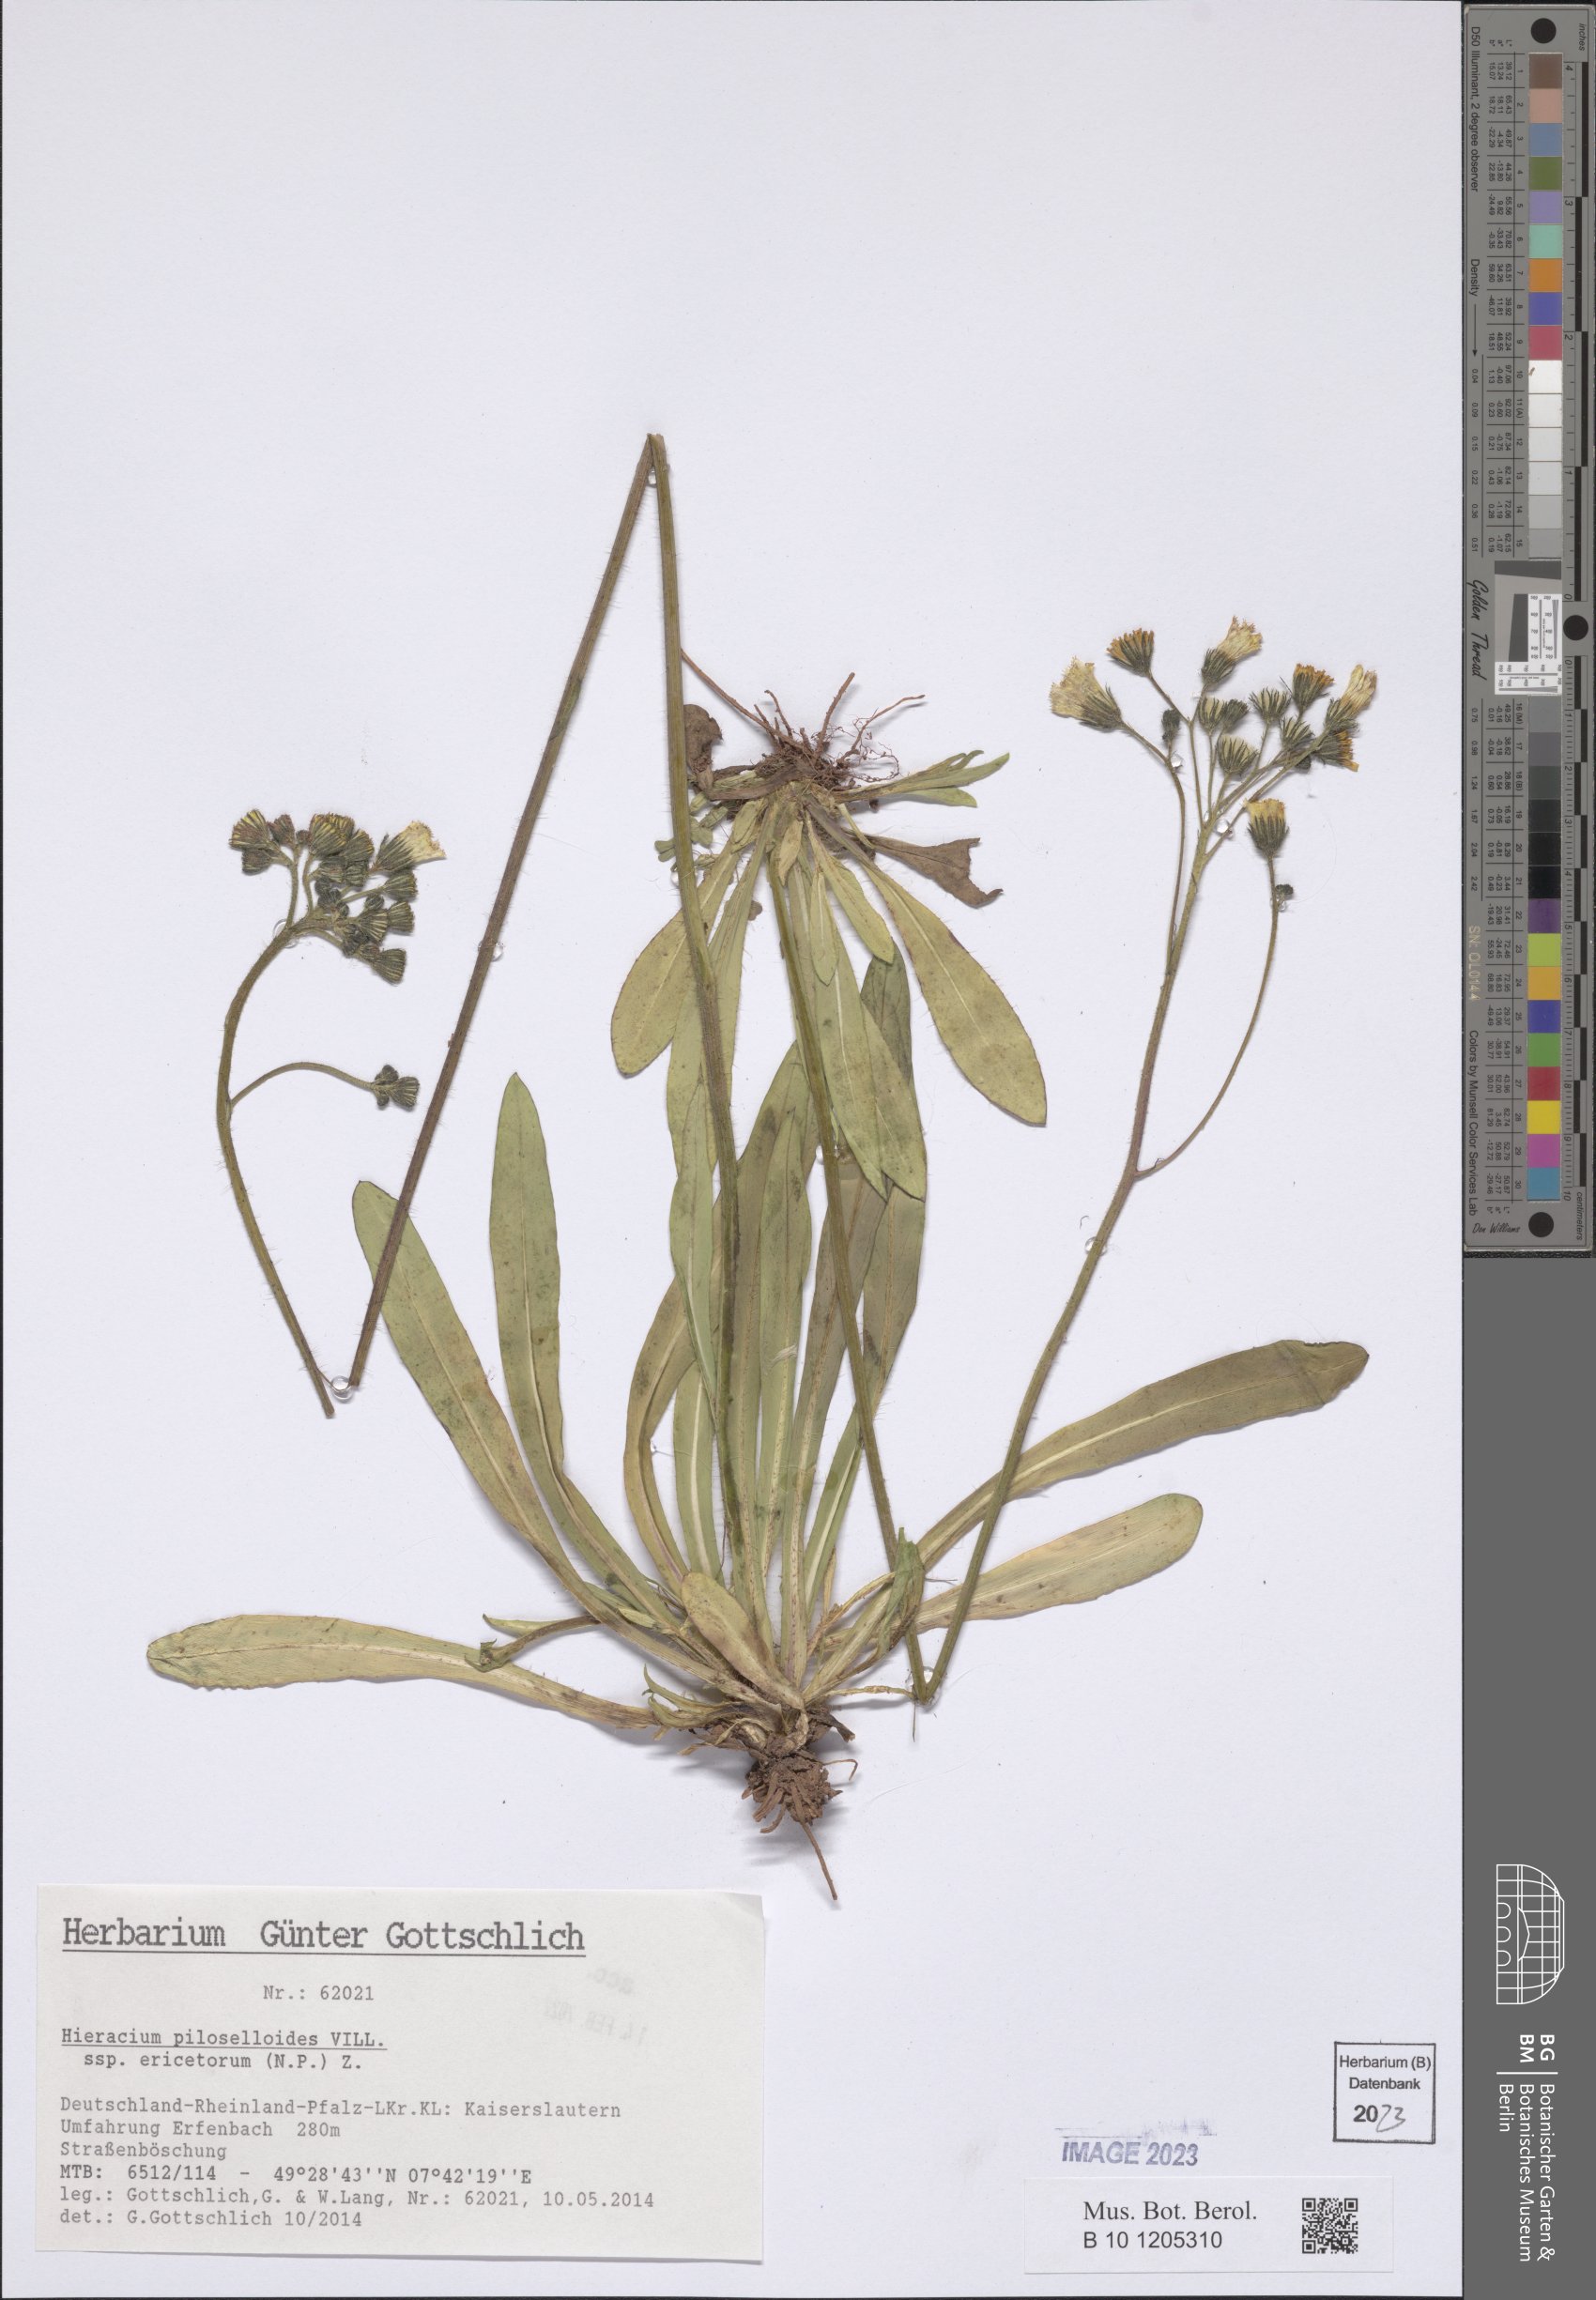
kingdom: Plantae
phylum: Tracheophyta
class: Magnoliopsida
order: Asterales
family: Asteraceae
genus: Pilosella
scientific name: Pilosella piloselloides
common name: Glaucous king-devil
